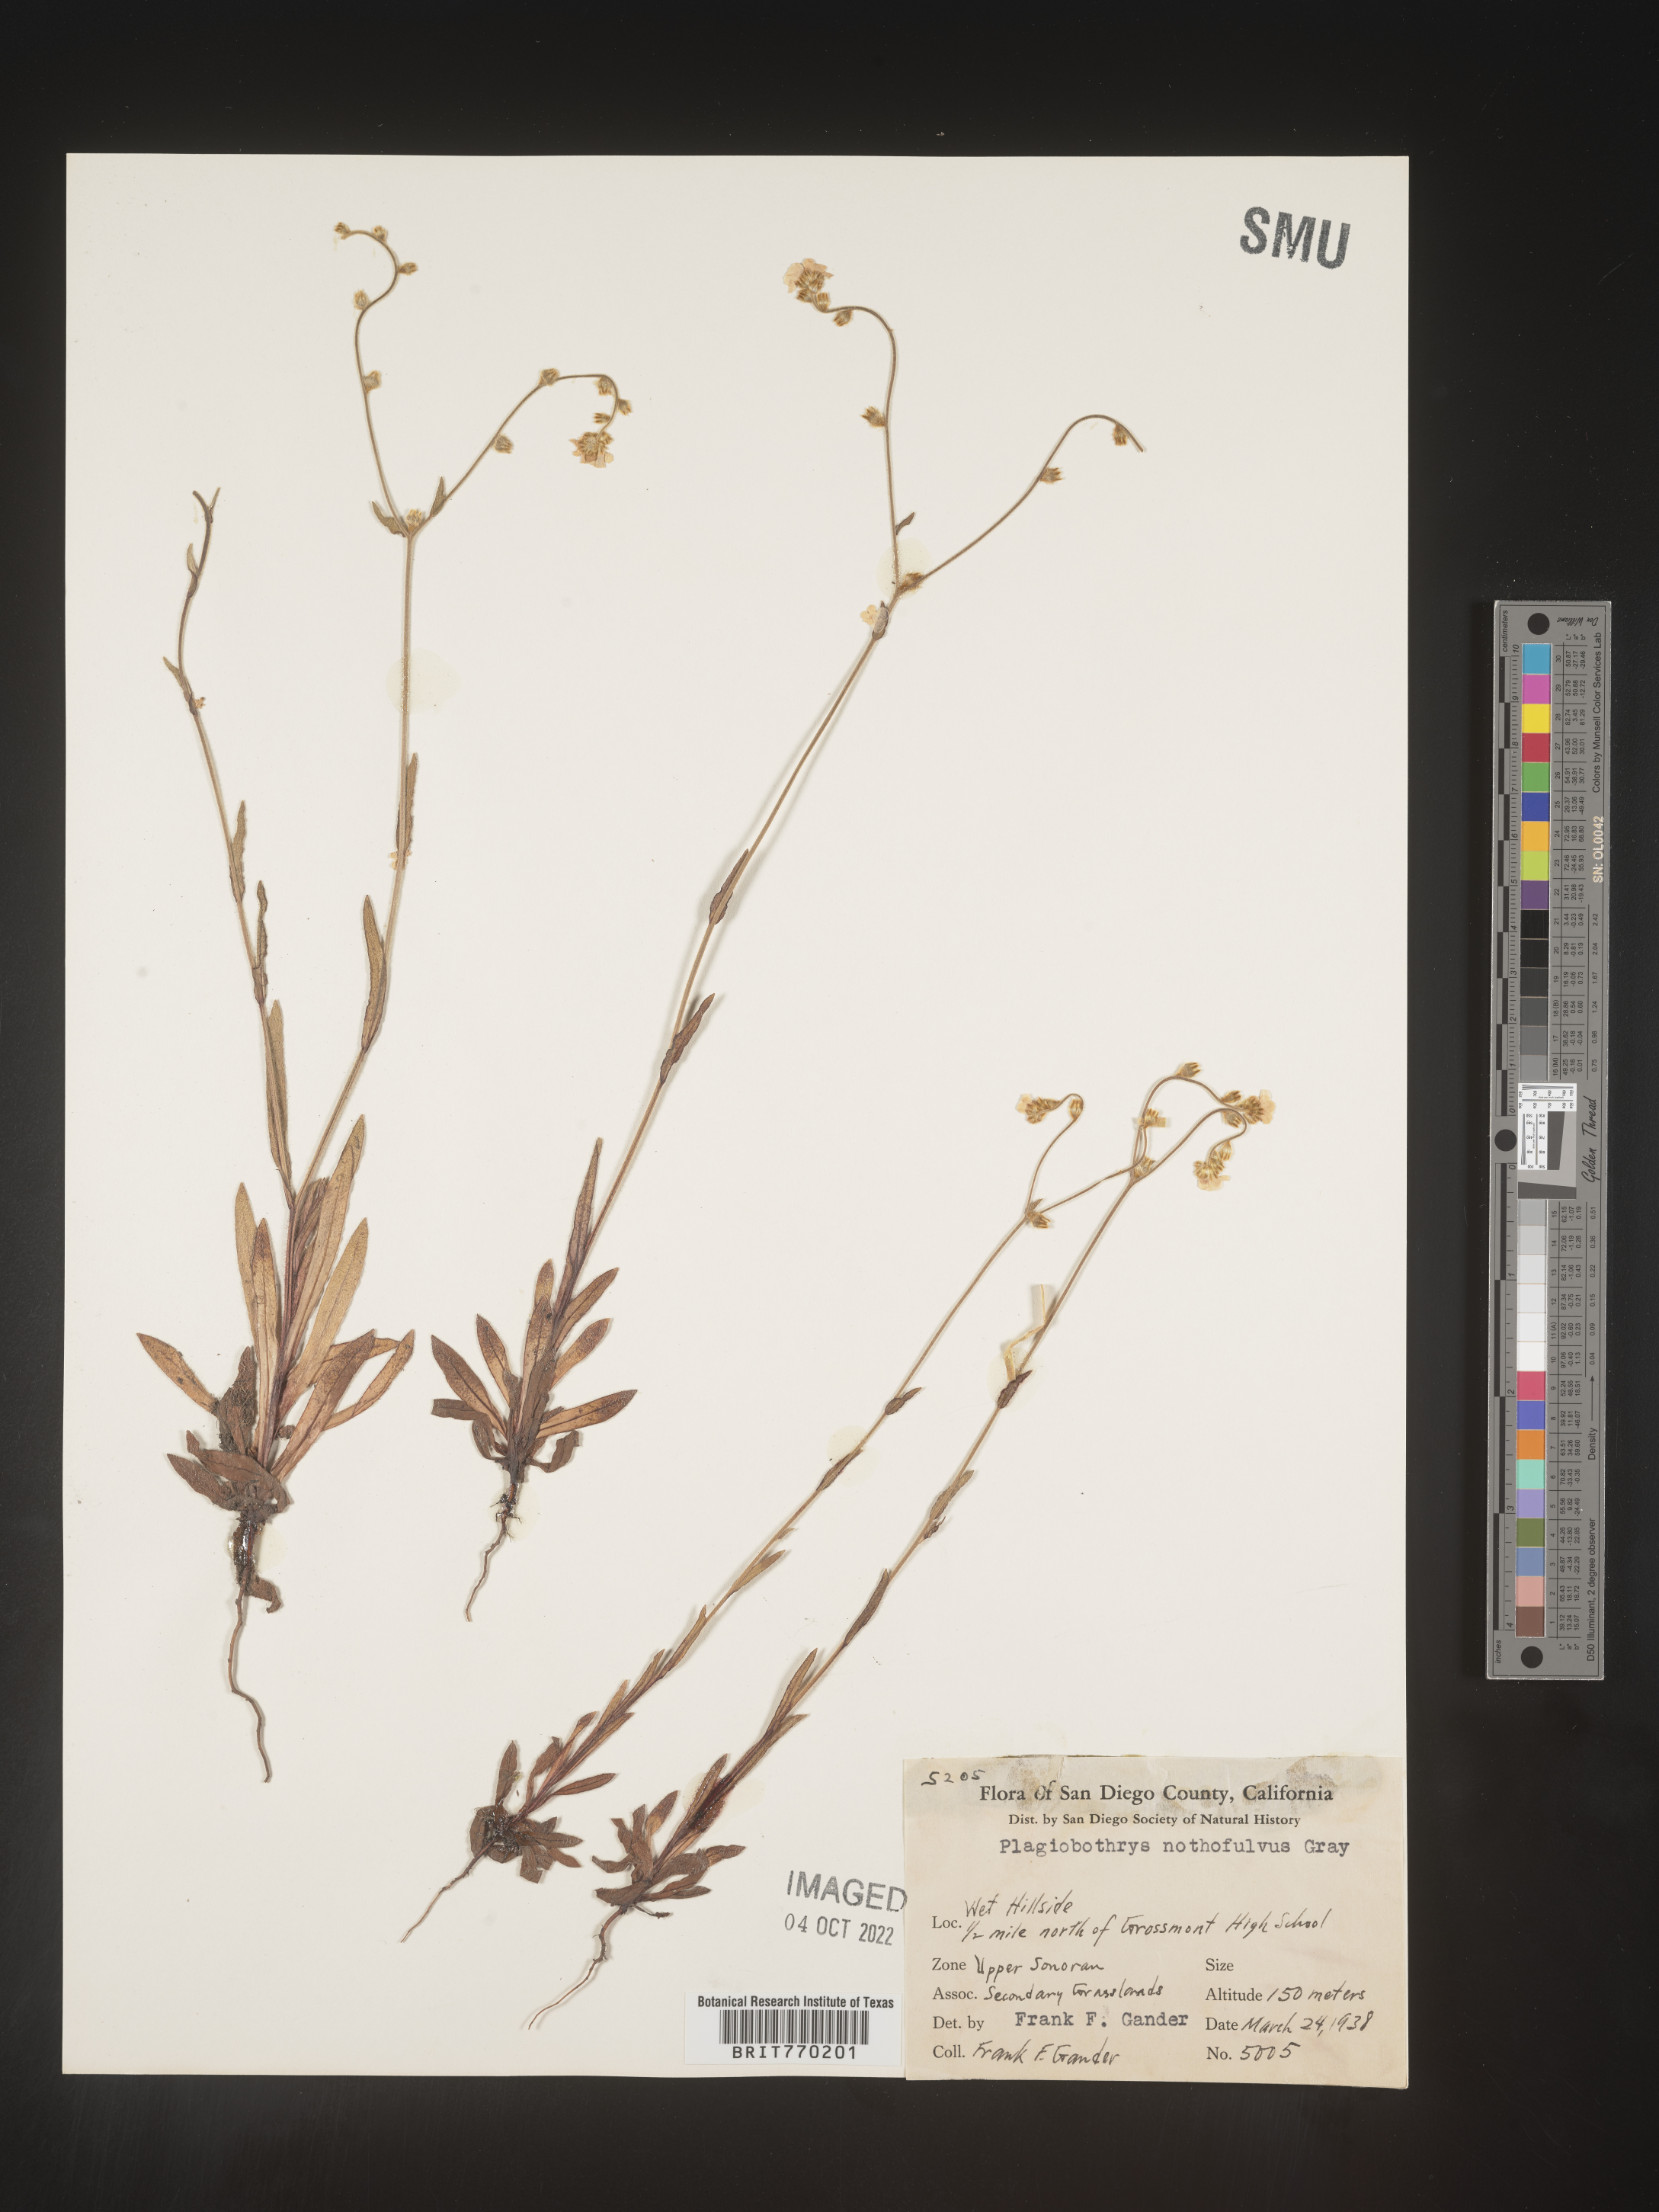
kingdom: Plantae
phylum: Tracheophyta
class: Magnoliopsida
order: Boraginales
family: Boraginaceae
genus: Plagiobothrys
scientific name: Plagiobothrys
